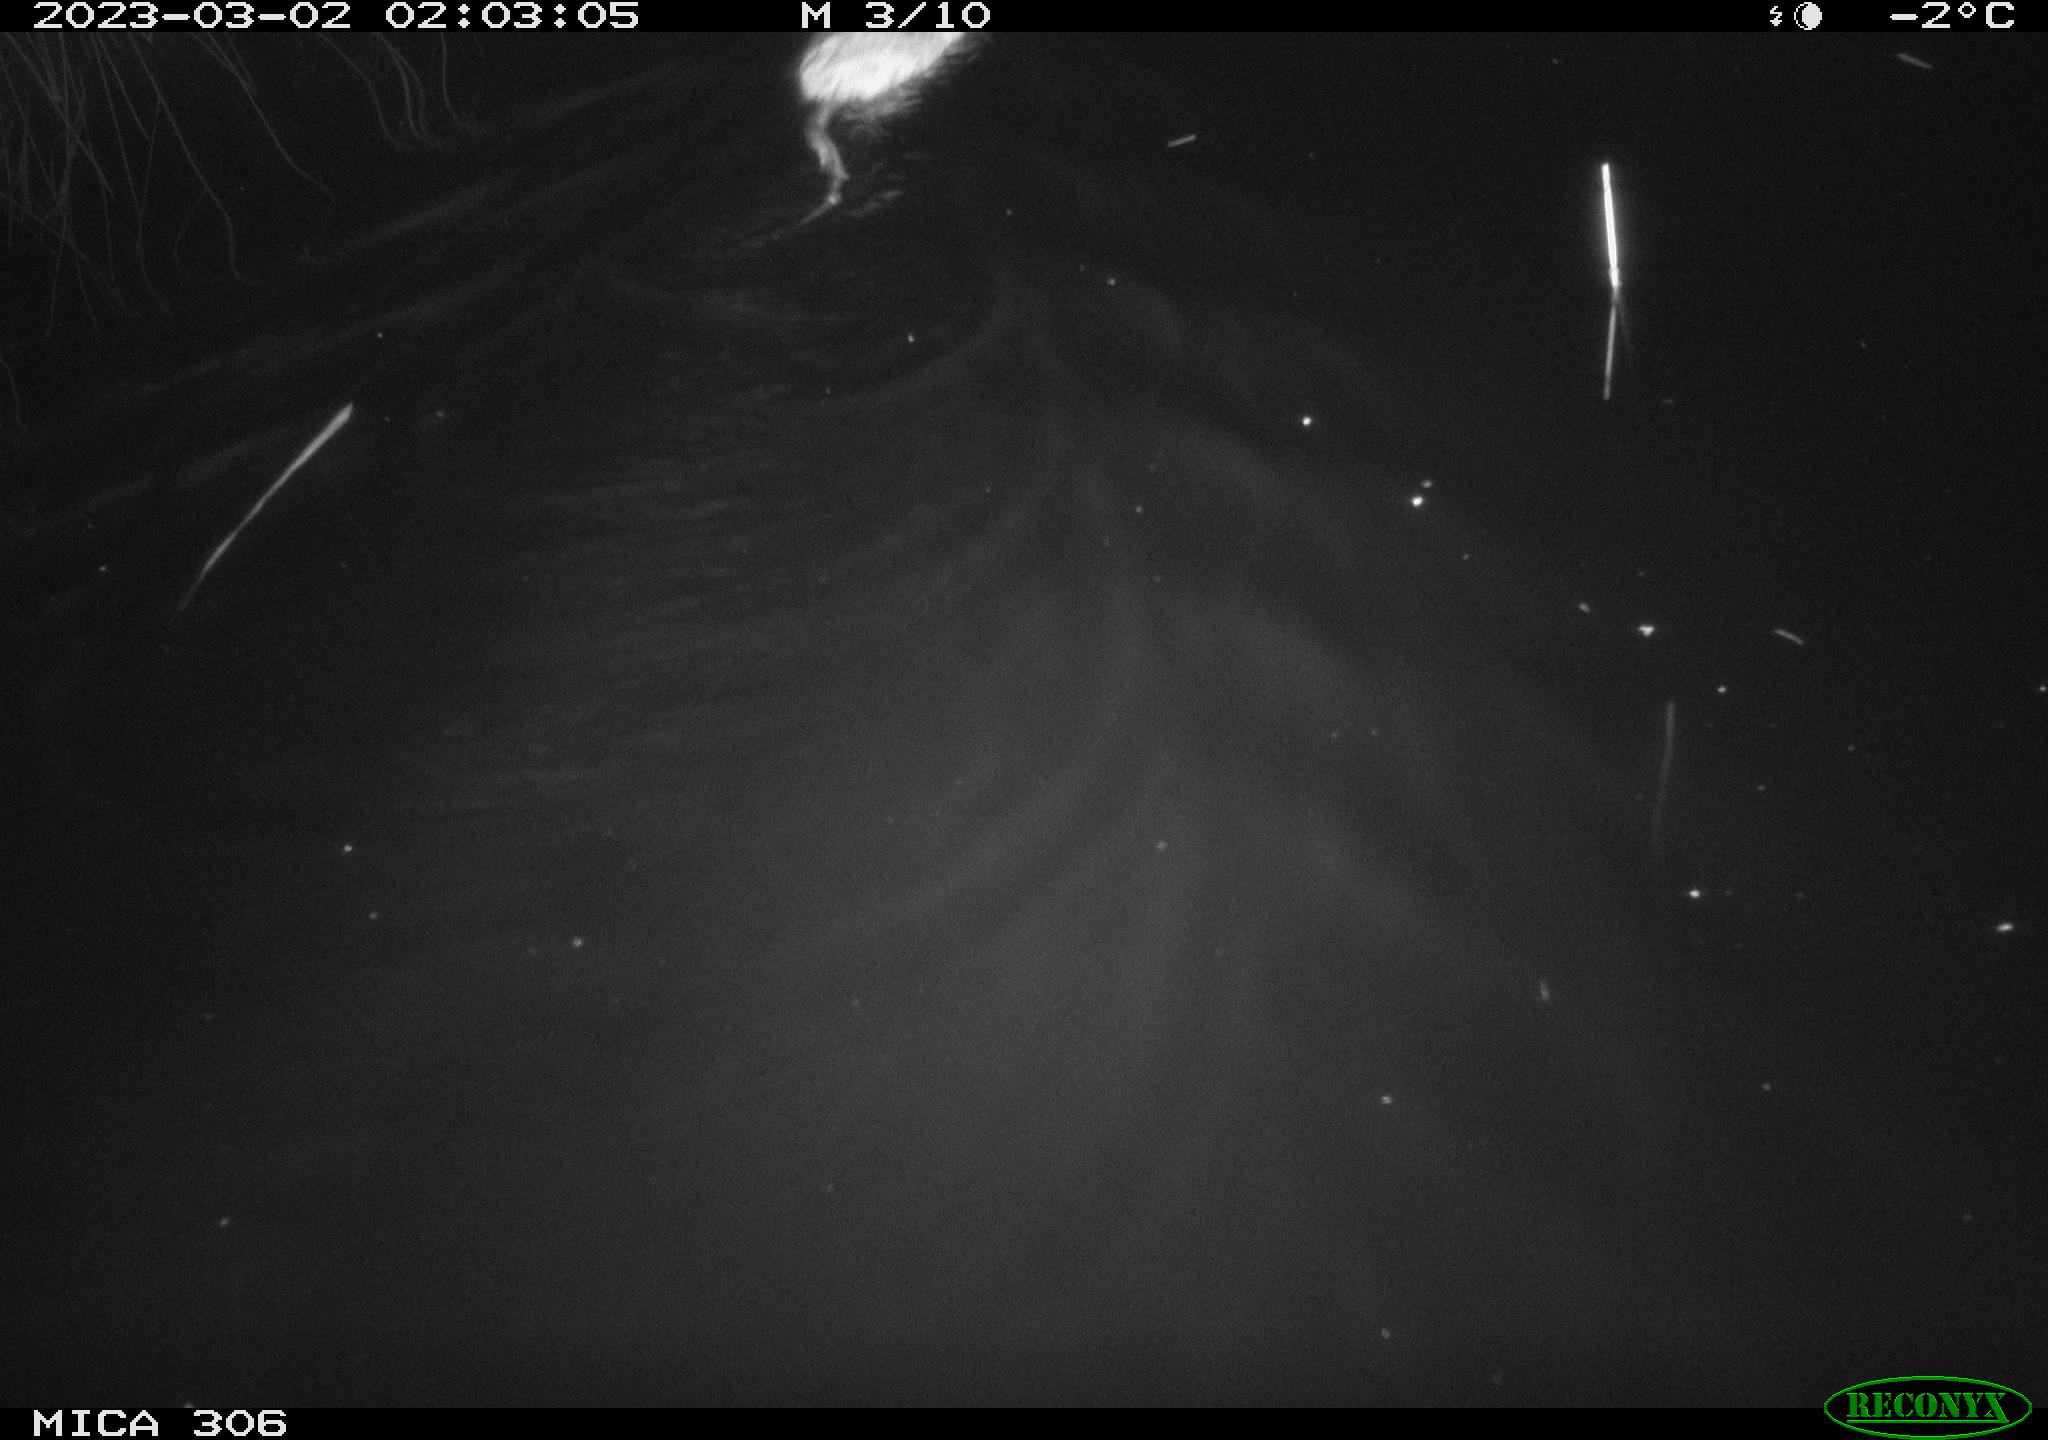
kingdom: Animalia
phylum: Chordata
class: Mammalia
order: Rodentia
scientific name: Rodentia
